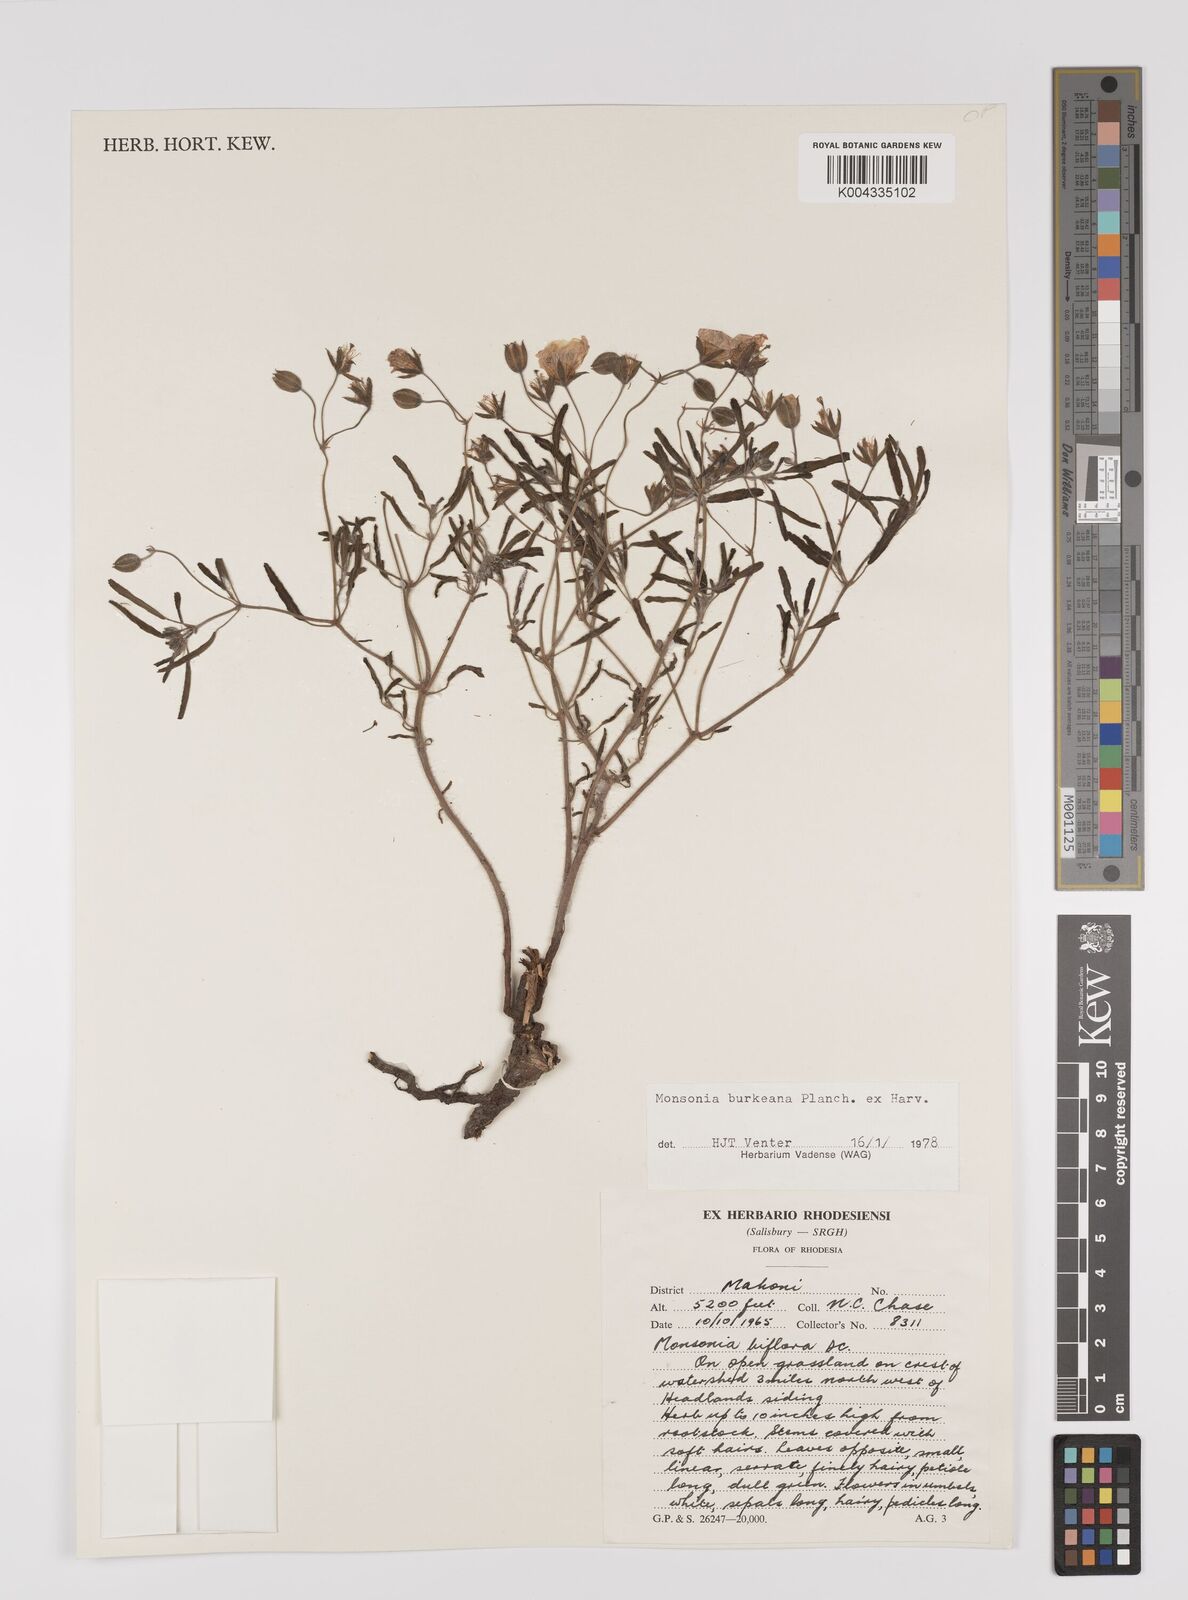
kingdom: Plantae
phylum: Tracheophyta
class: Magnoliopsida
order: Geraniales
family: Geraniaceae
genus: Monsonia
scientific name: Monsonia biflora
